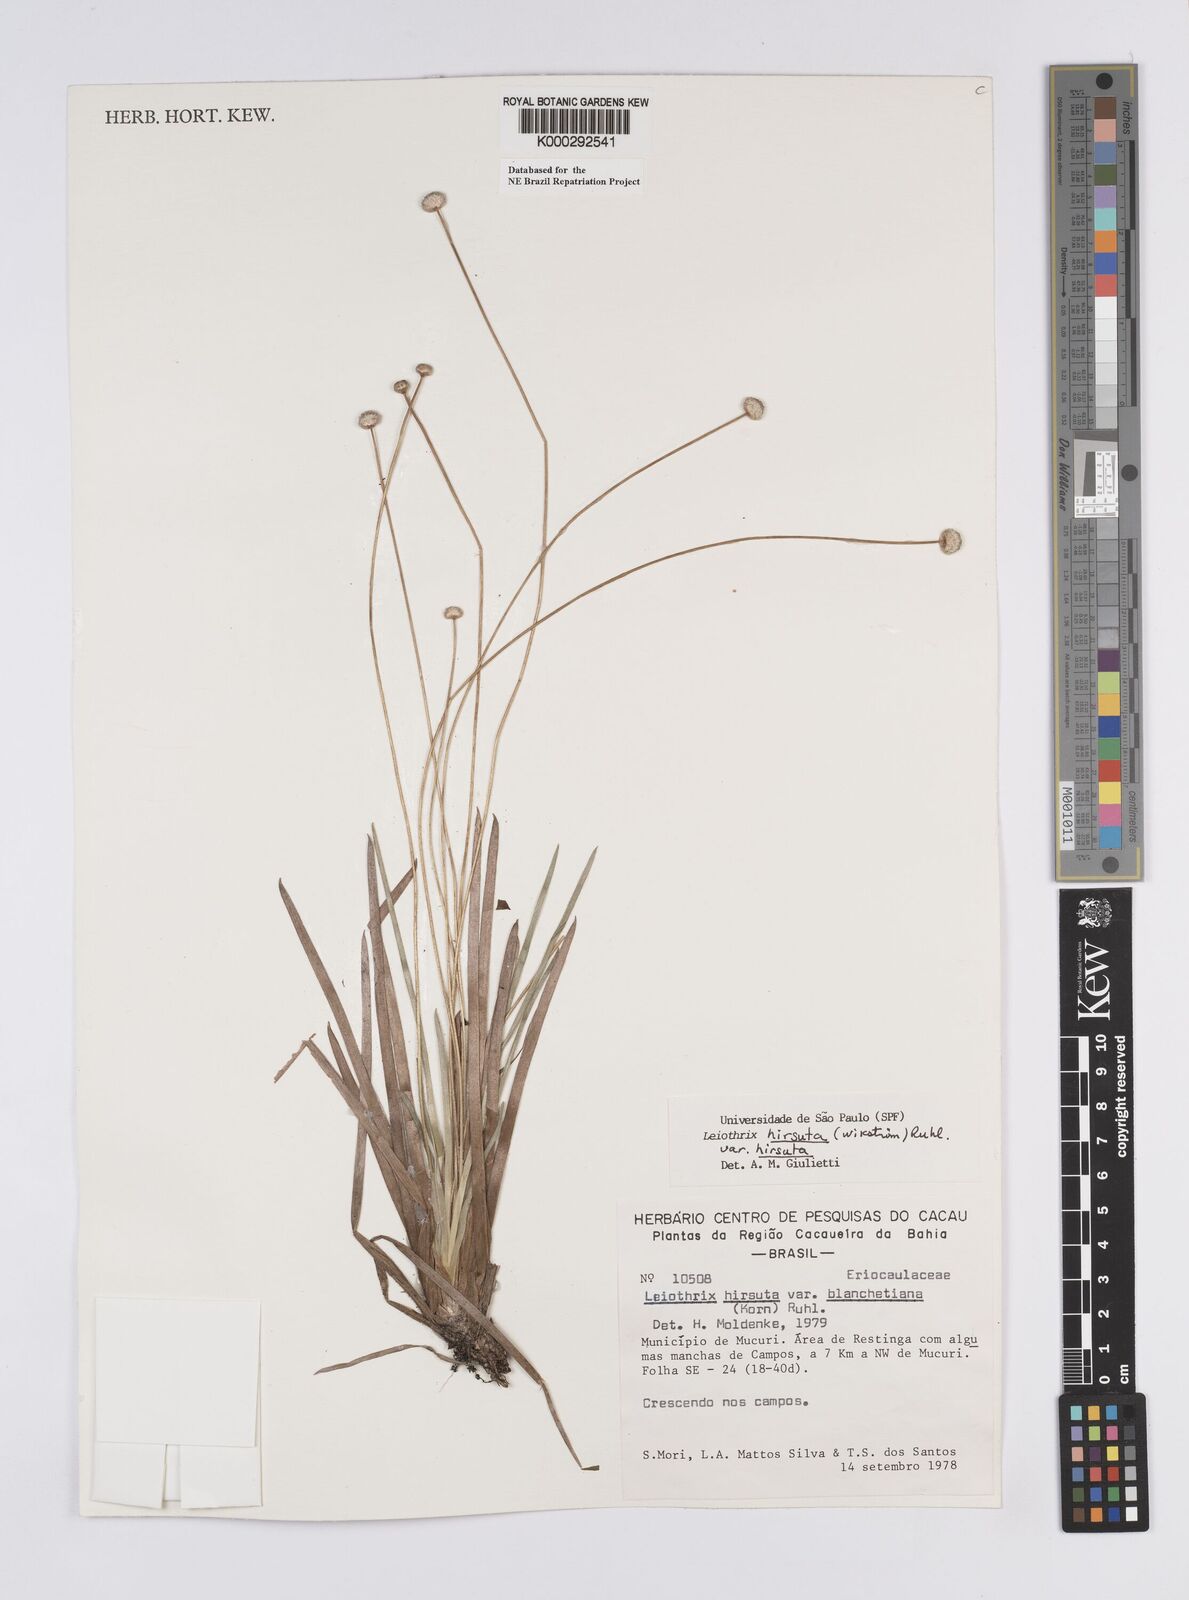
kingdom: Plantae
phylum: Tracheophyta
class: Liliopsida
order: Poales
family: Eriocaulaceae
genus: Leiothrix
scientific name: Leiothrix hirsuta
